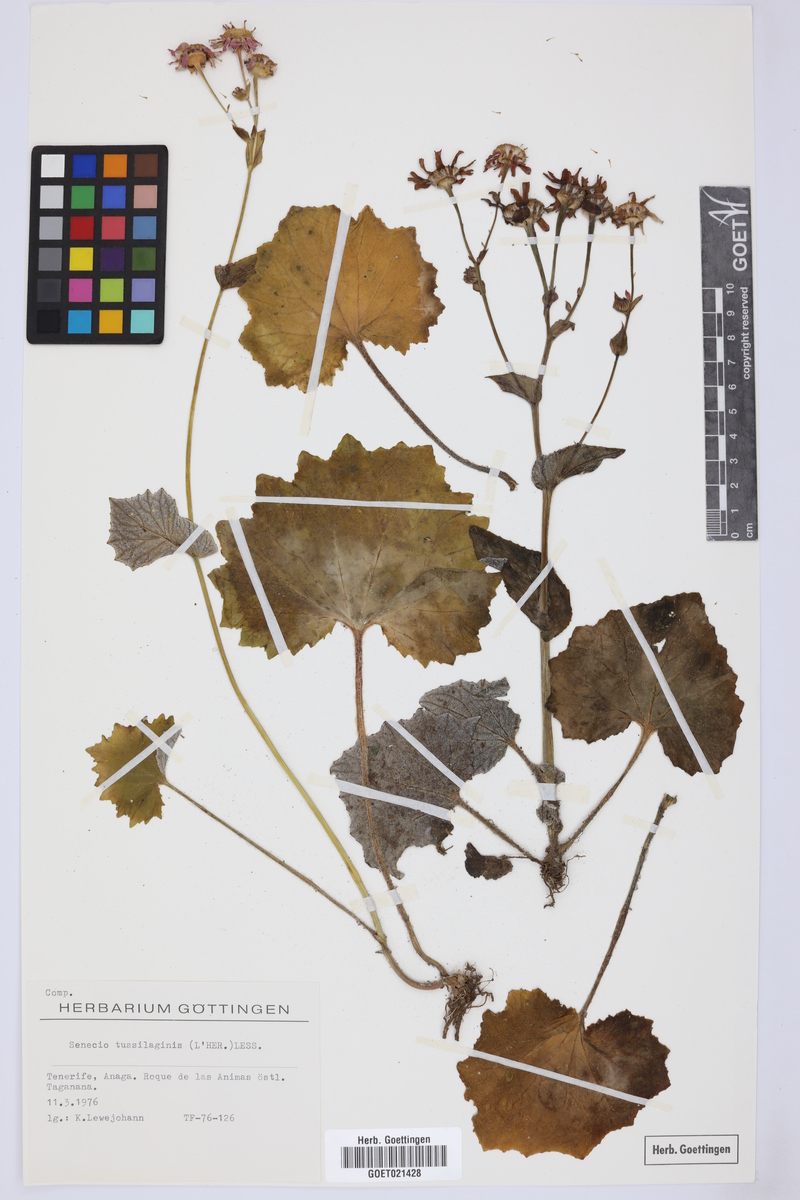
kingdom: Plantae
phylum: Tracheophyta
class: Magnoliopsida
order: Asterales
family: Asteraceae
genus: Pericallis
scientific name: Pericallis tussilaginis
